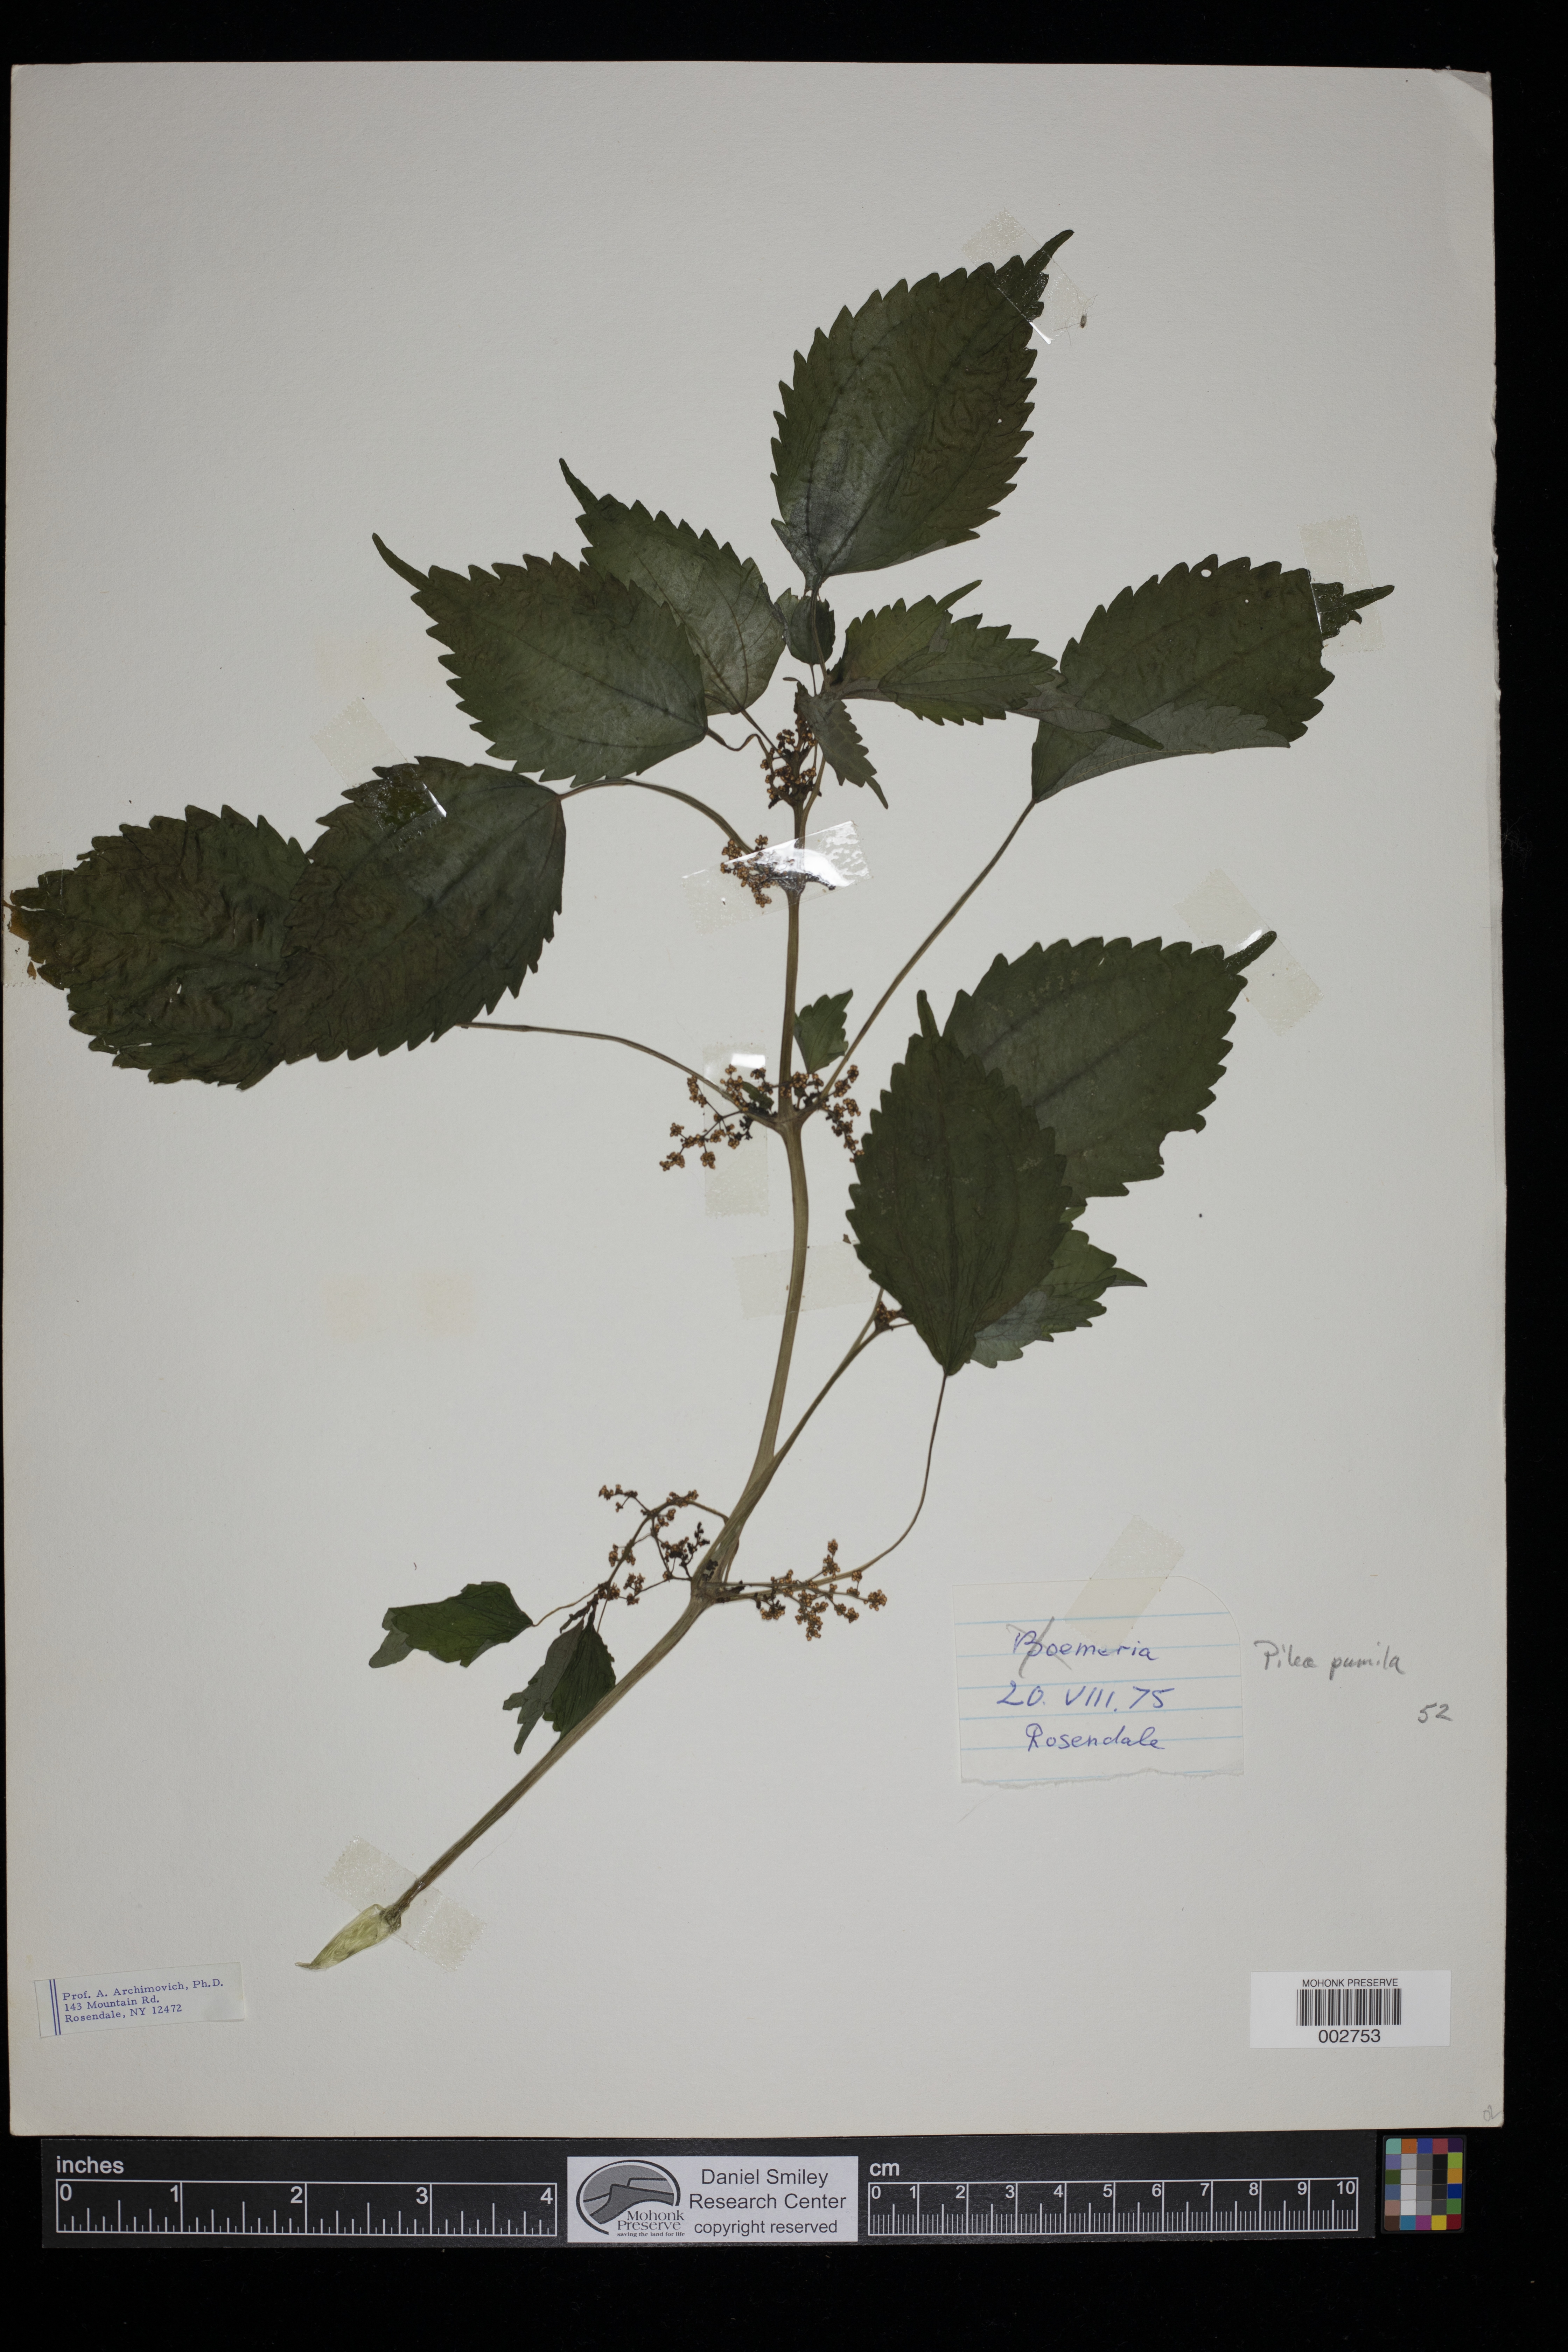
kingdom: Plantae
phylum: Tracheophyta
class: Magnoliopsida
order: Rosales
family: Urticaceae
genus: Pilea
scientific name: Pilea pumila
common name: Clearweed
